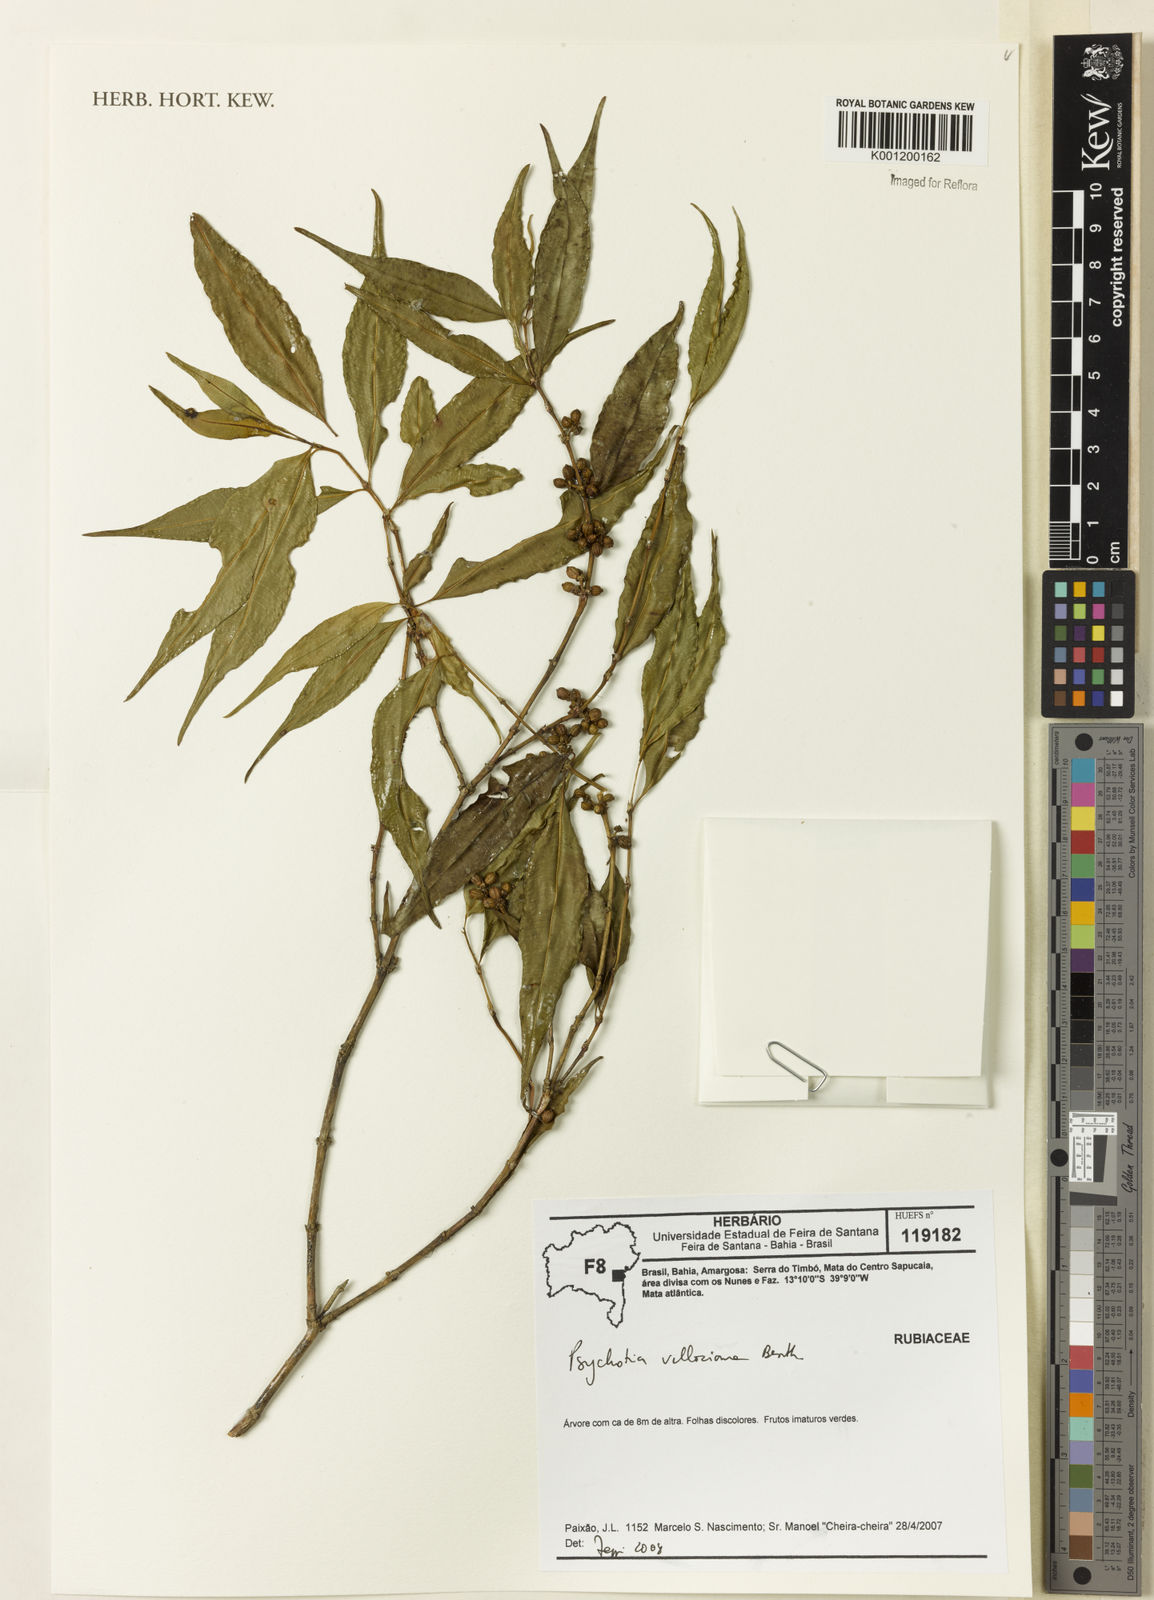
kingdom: Plantae
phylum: Tracheophyta
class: Magnoliopsida
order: Gentianales
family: Rubiaceae
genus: Palicourea
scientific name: Palicourea sessilis
